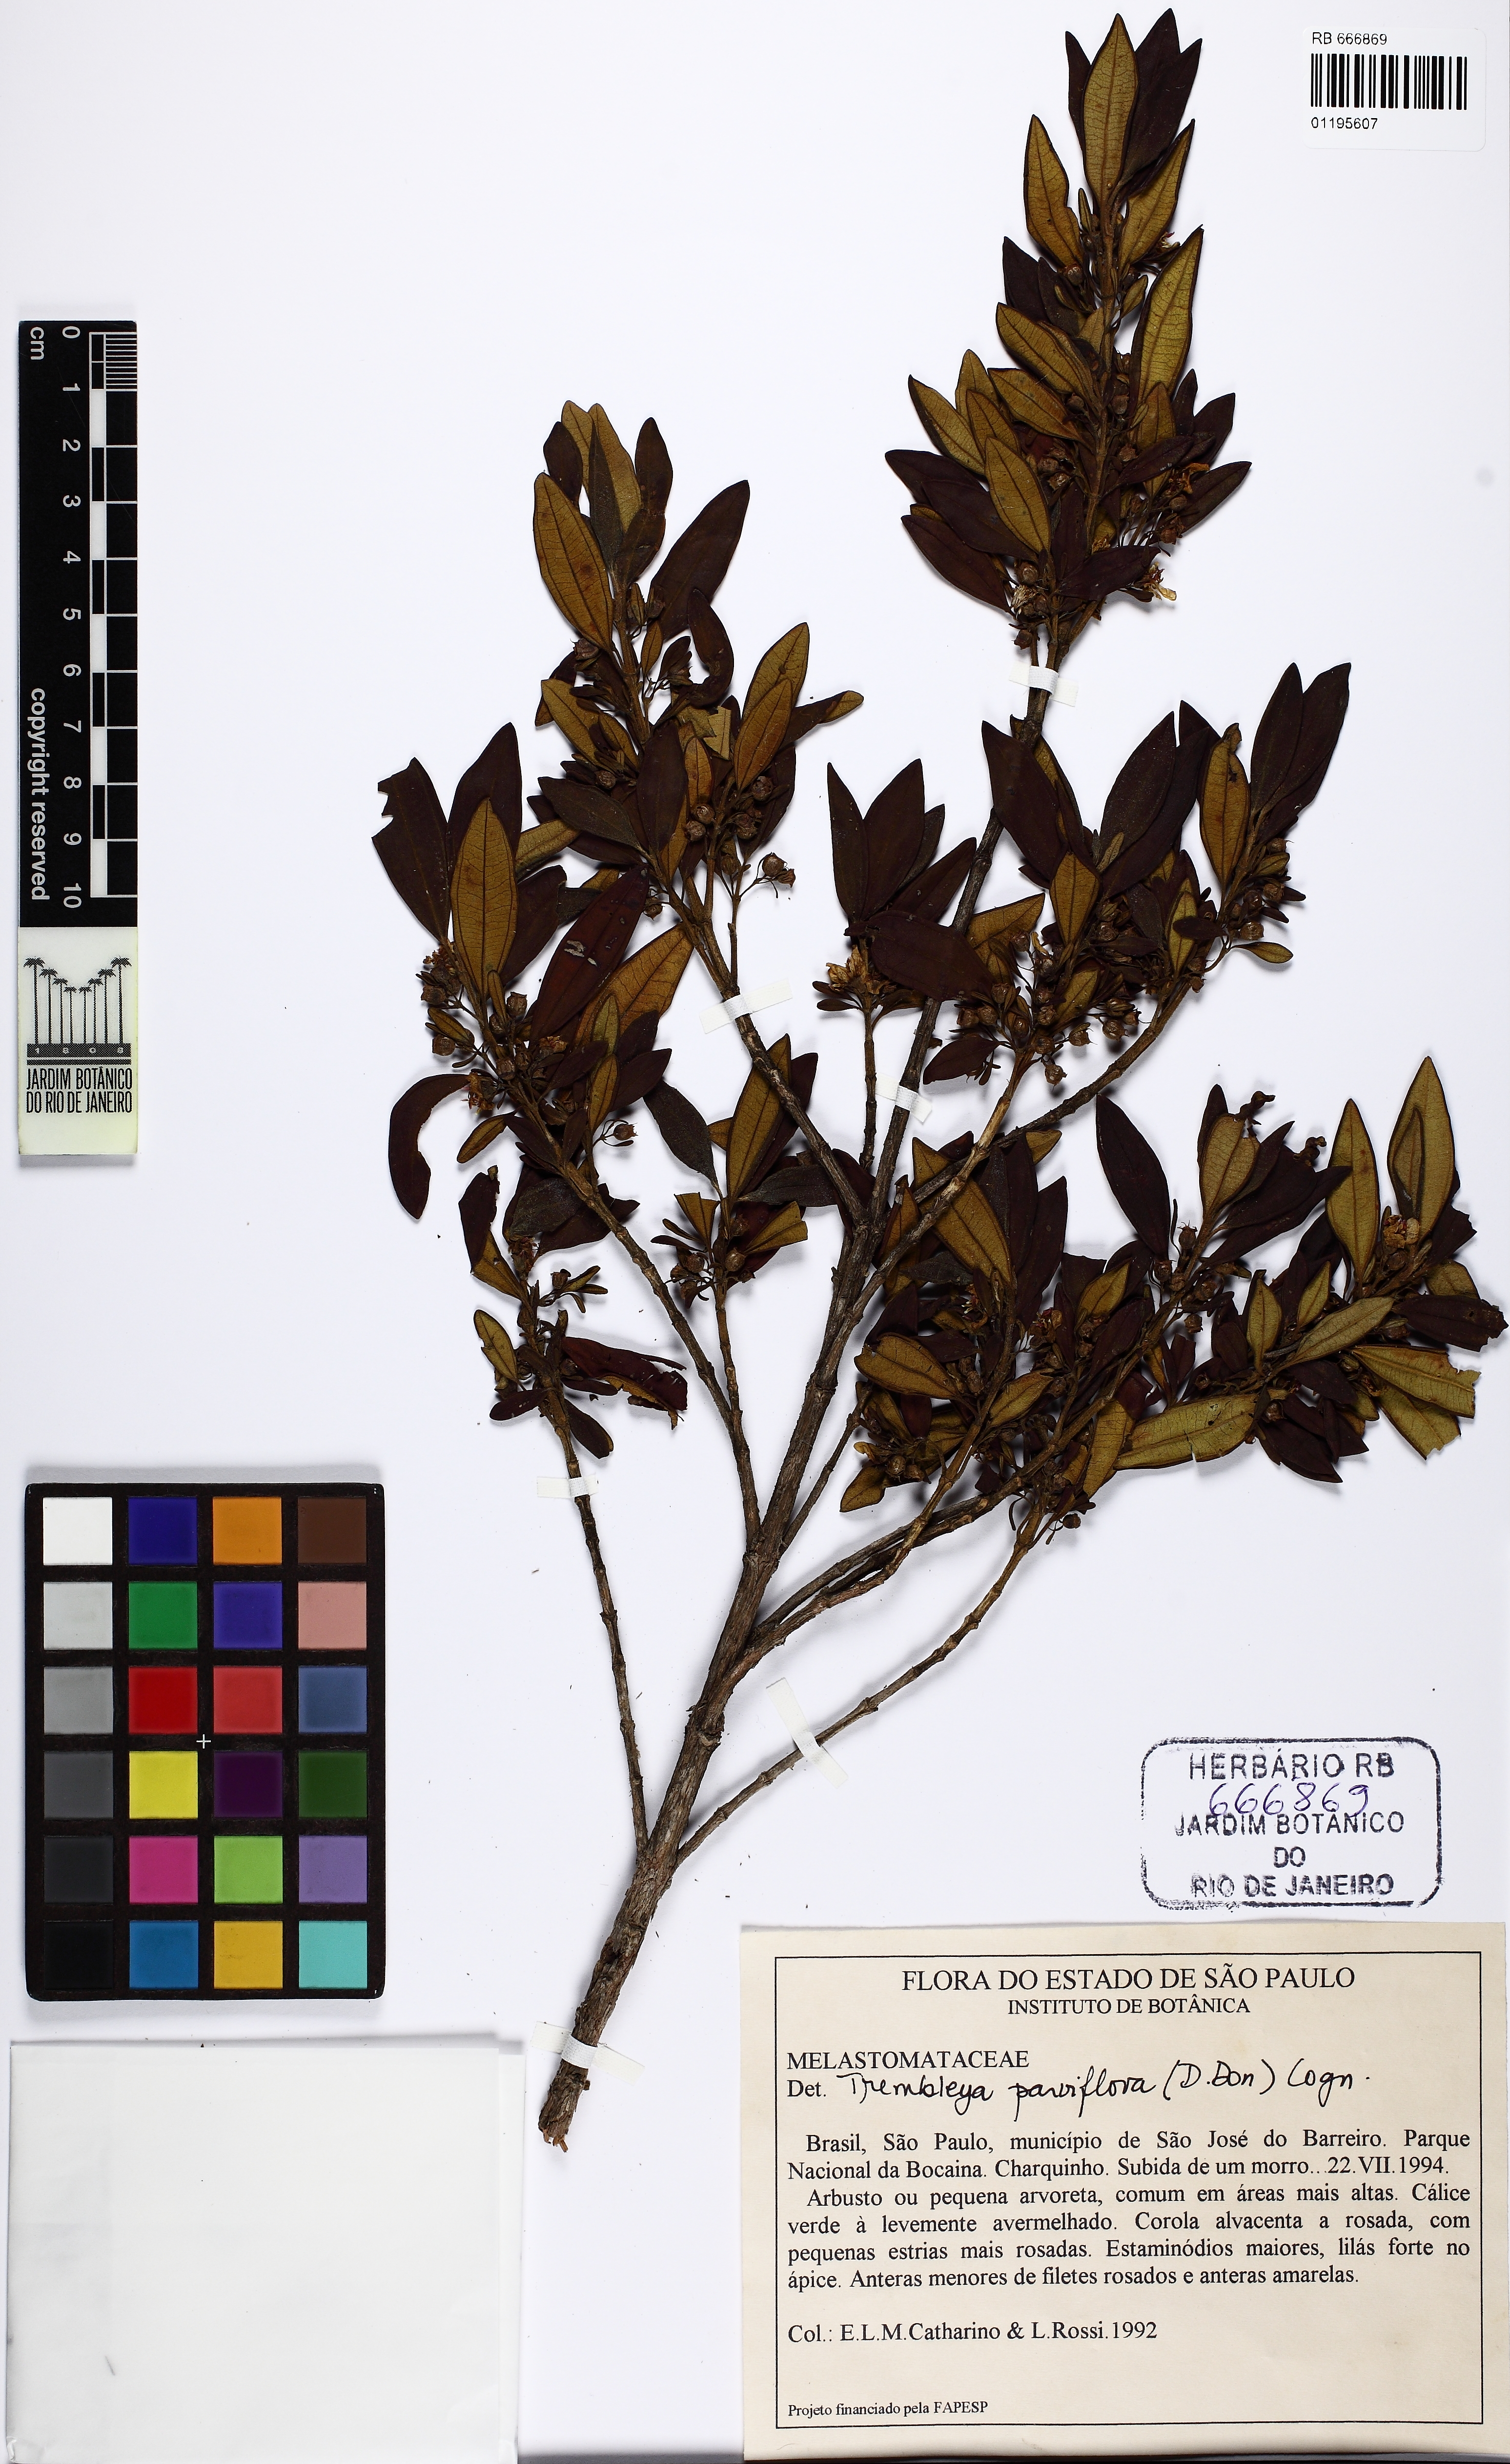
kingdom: Plantae
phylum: Tracheophyta
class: Magnoliopsida
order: Myrtales
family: Melastomataceae
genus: Microlicia
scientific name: Microlicia parviflora
